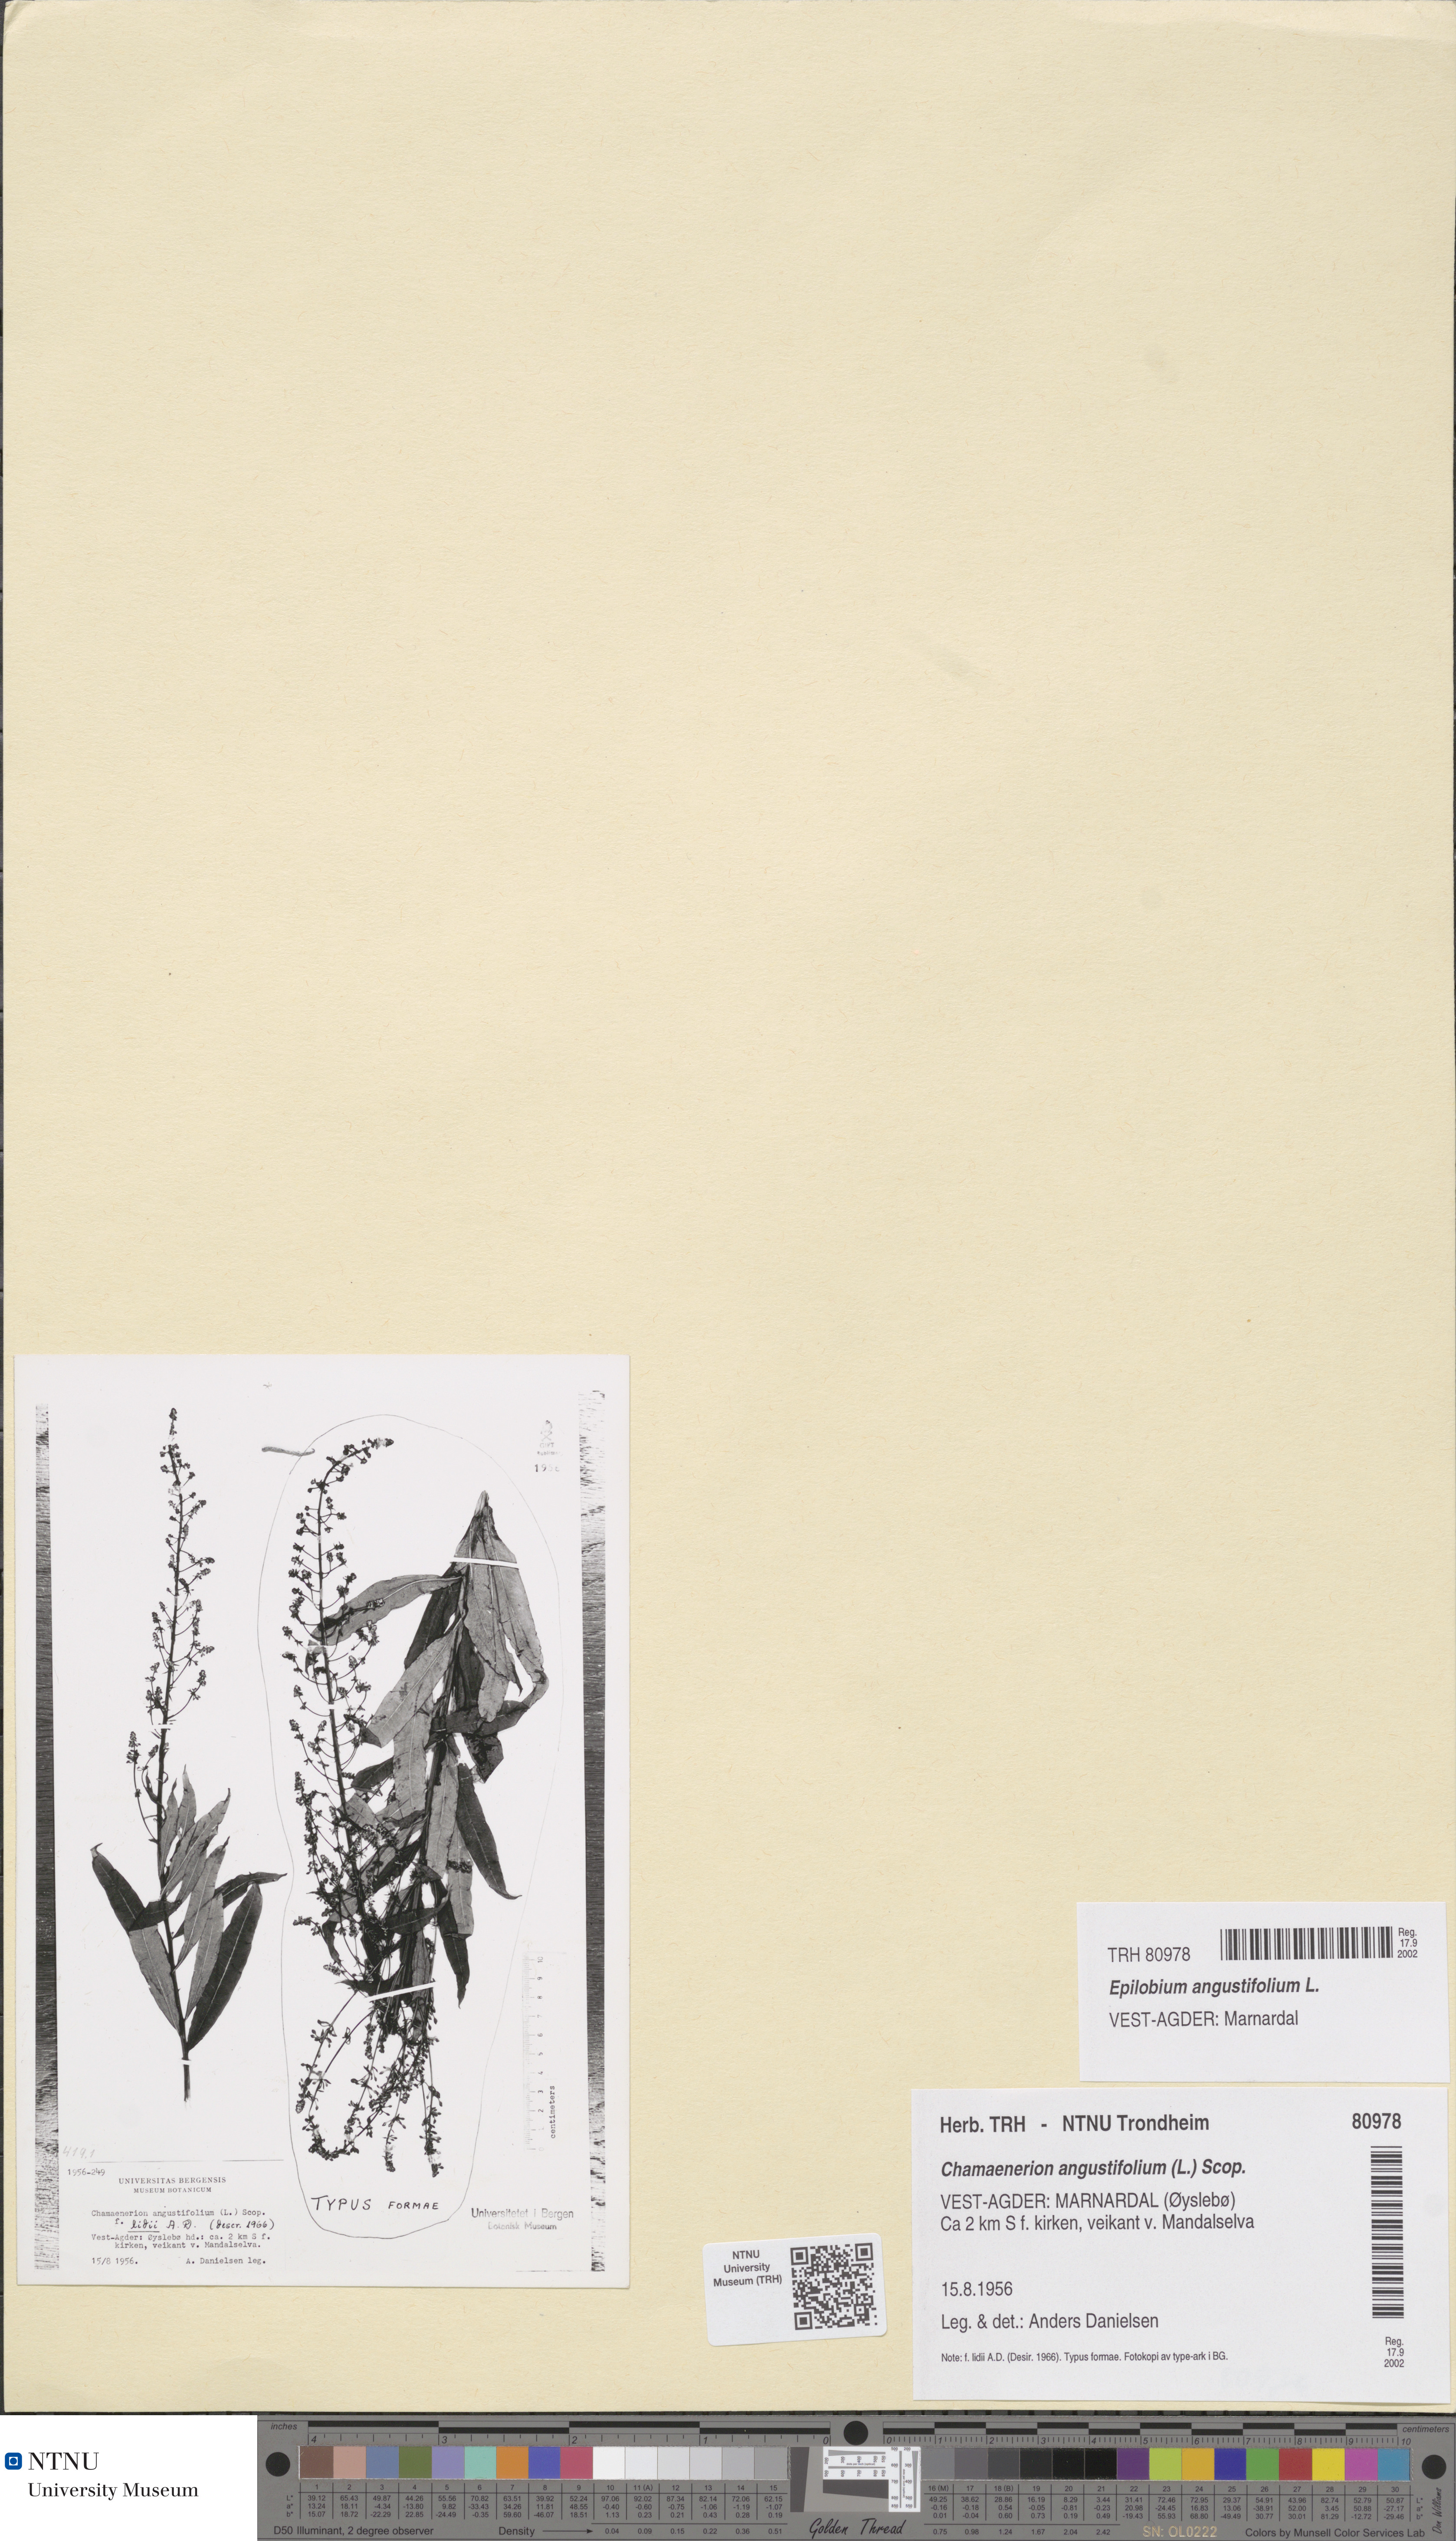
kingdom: Plantae
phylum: Tracheophyta
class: Magnoliopsida
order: Myrtales
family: Onagraceae
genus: Chamaenerion
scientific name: Chamaenerion angustifolium
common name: Fireweed
